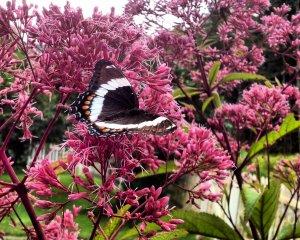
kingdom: Animalia
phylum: Arthropoda
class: Insecta
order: Lepidoptera
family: Nymphalidae
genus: Limenitis
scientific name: Limenitis arthemis
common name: Red-spotted Admiral
